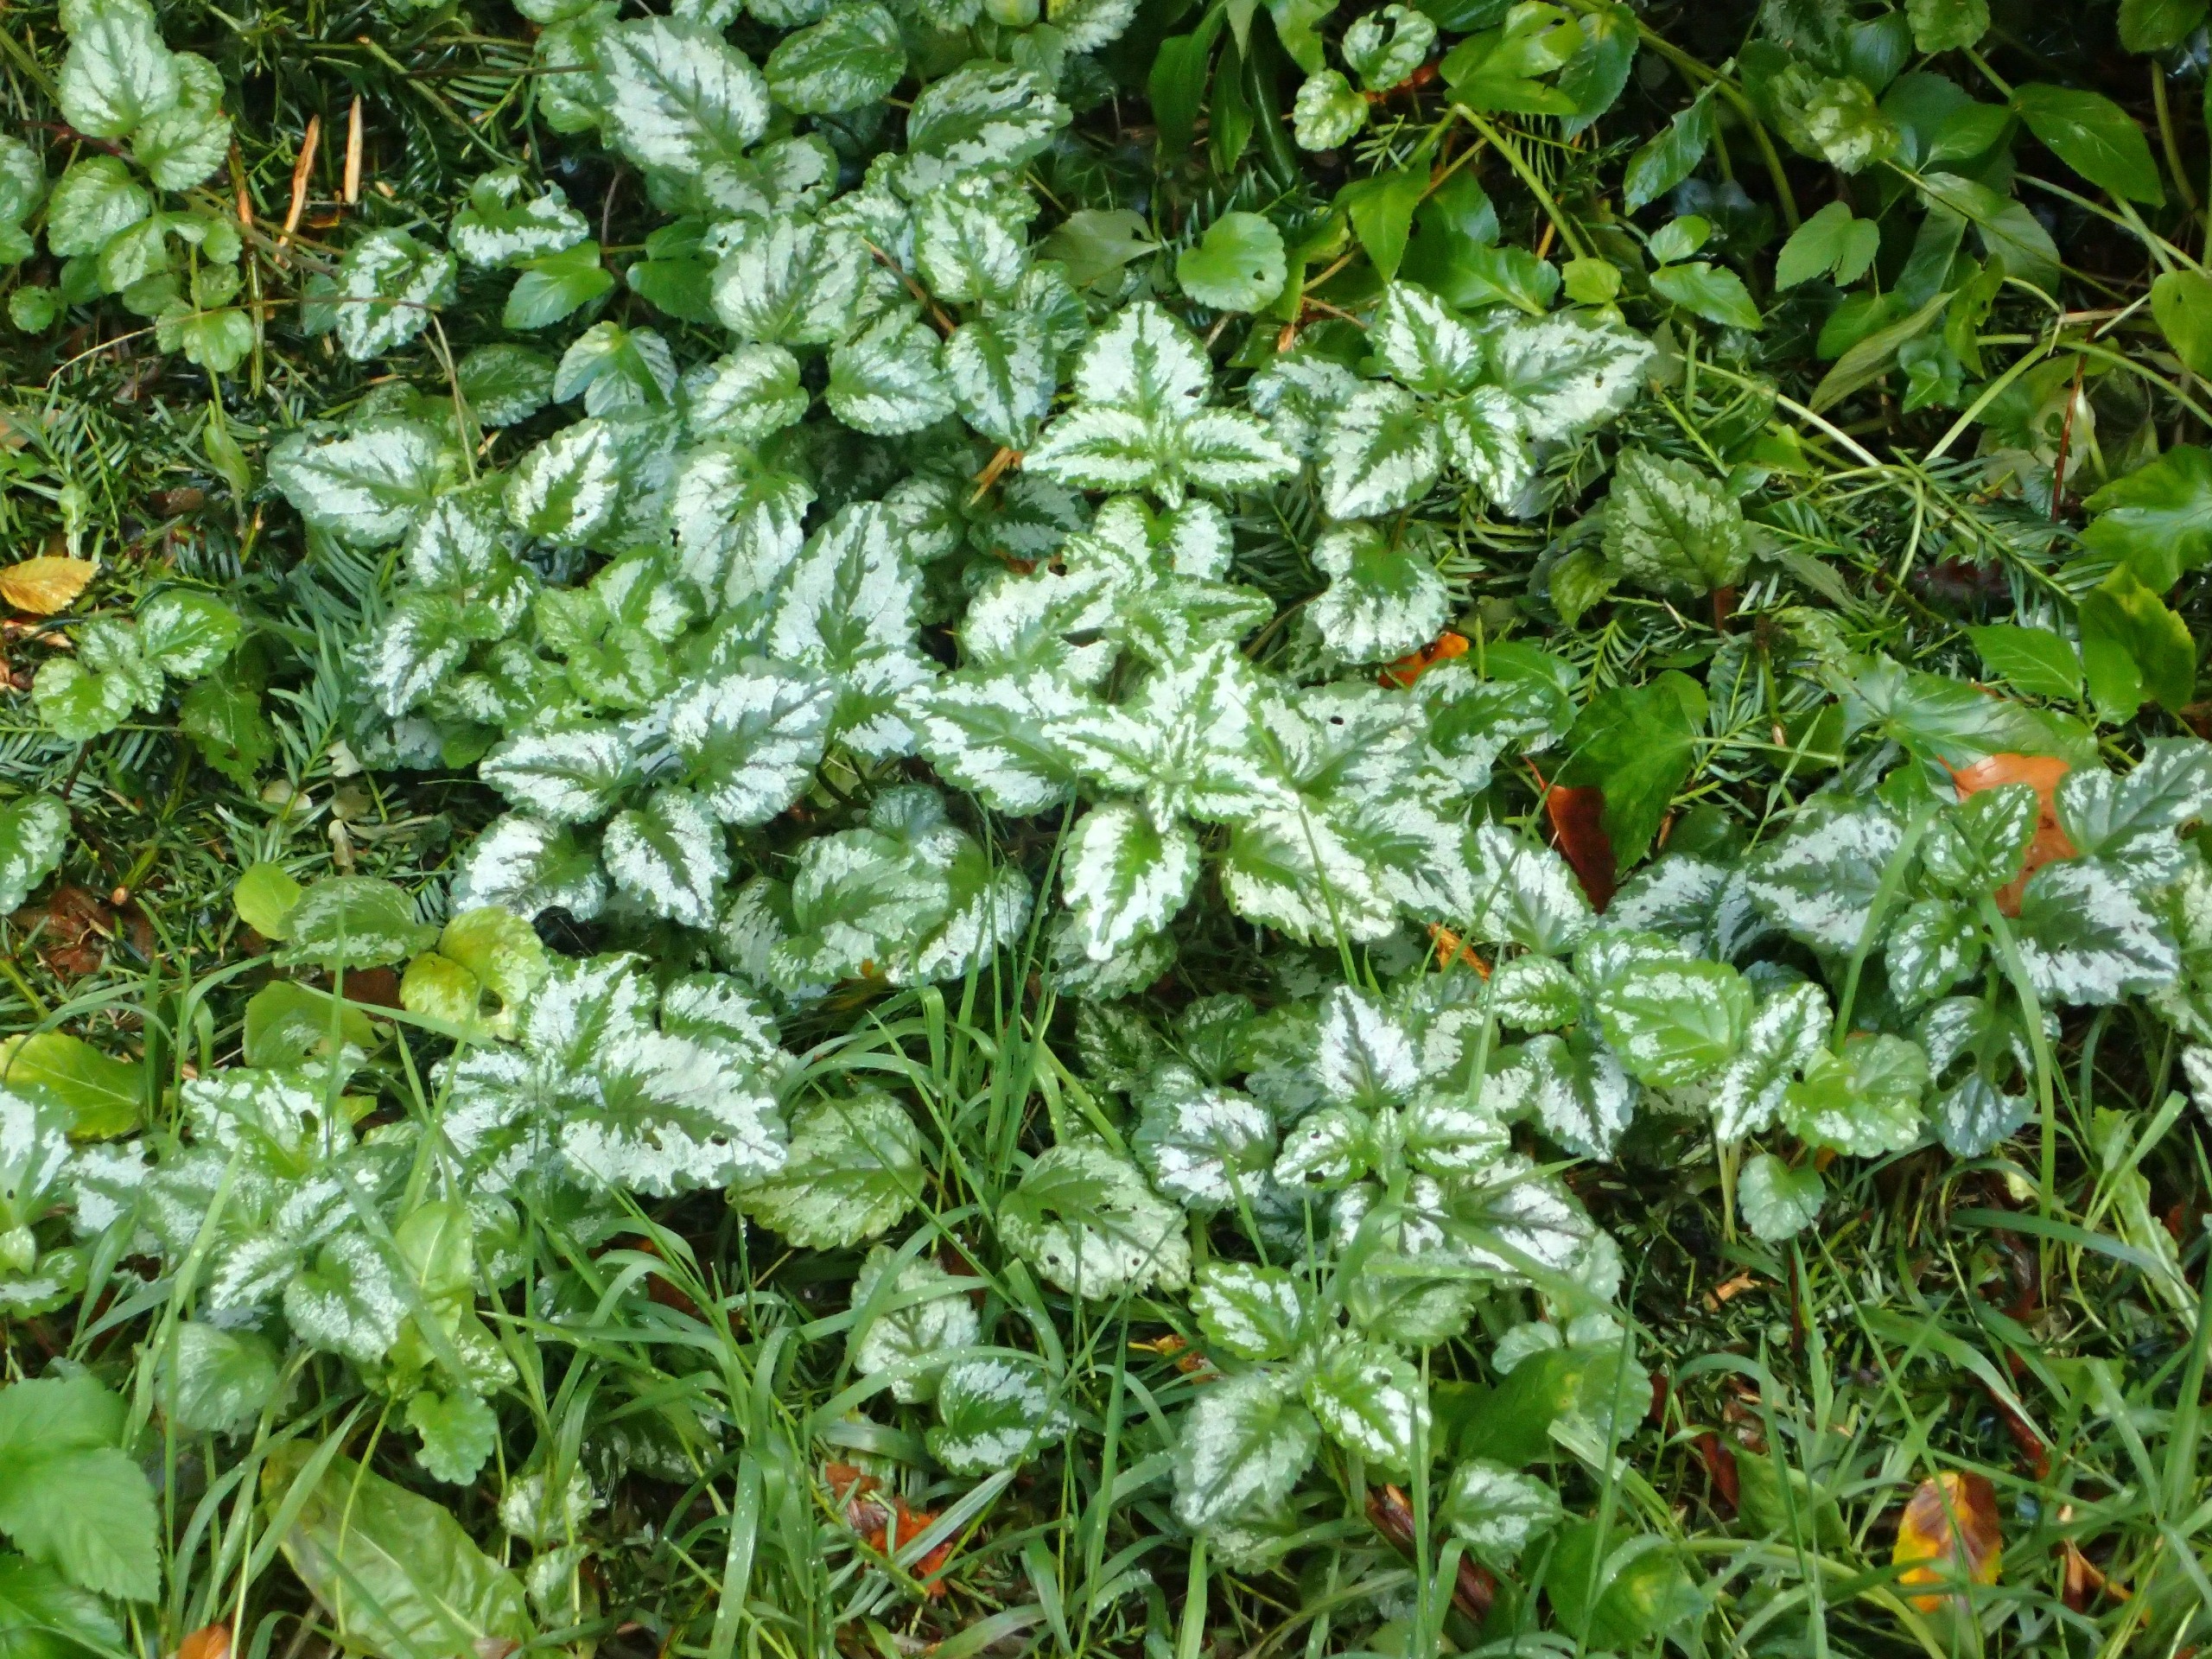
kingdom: Plantae
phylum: Tracheophyta
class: Magnoliopsida
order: Lamiales
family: Lamiaceae
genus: Lamium
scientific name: Lamium galeobdolon
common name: Have-guldnælde
